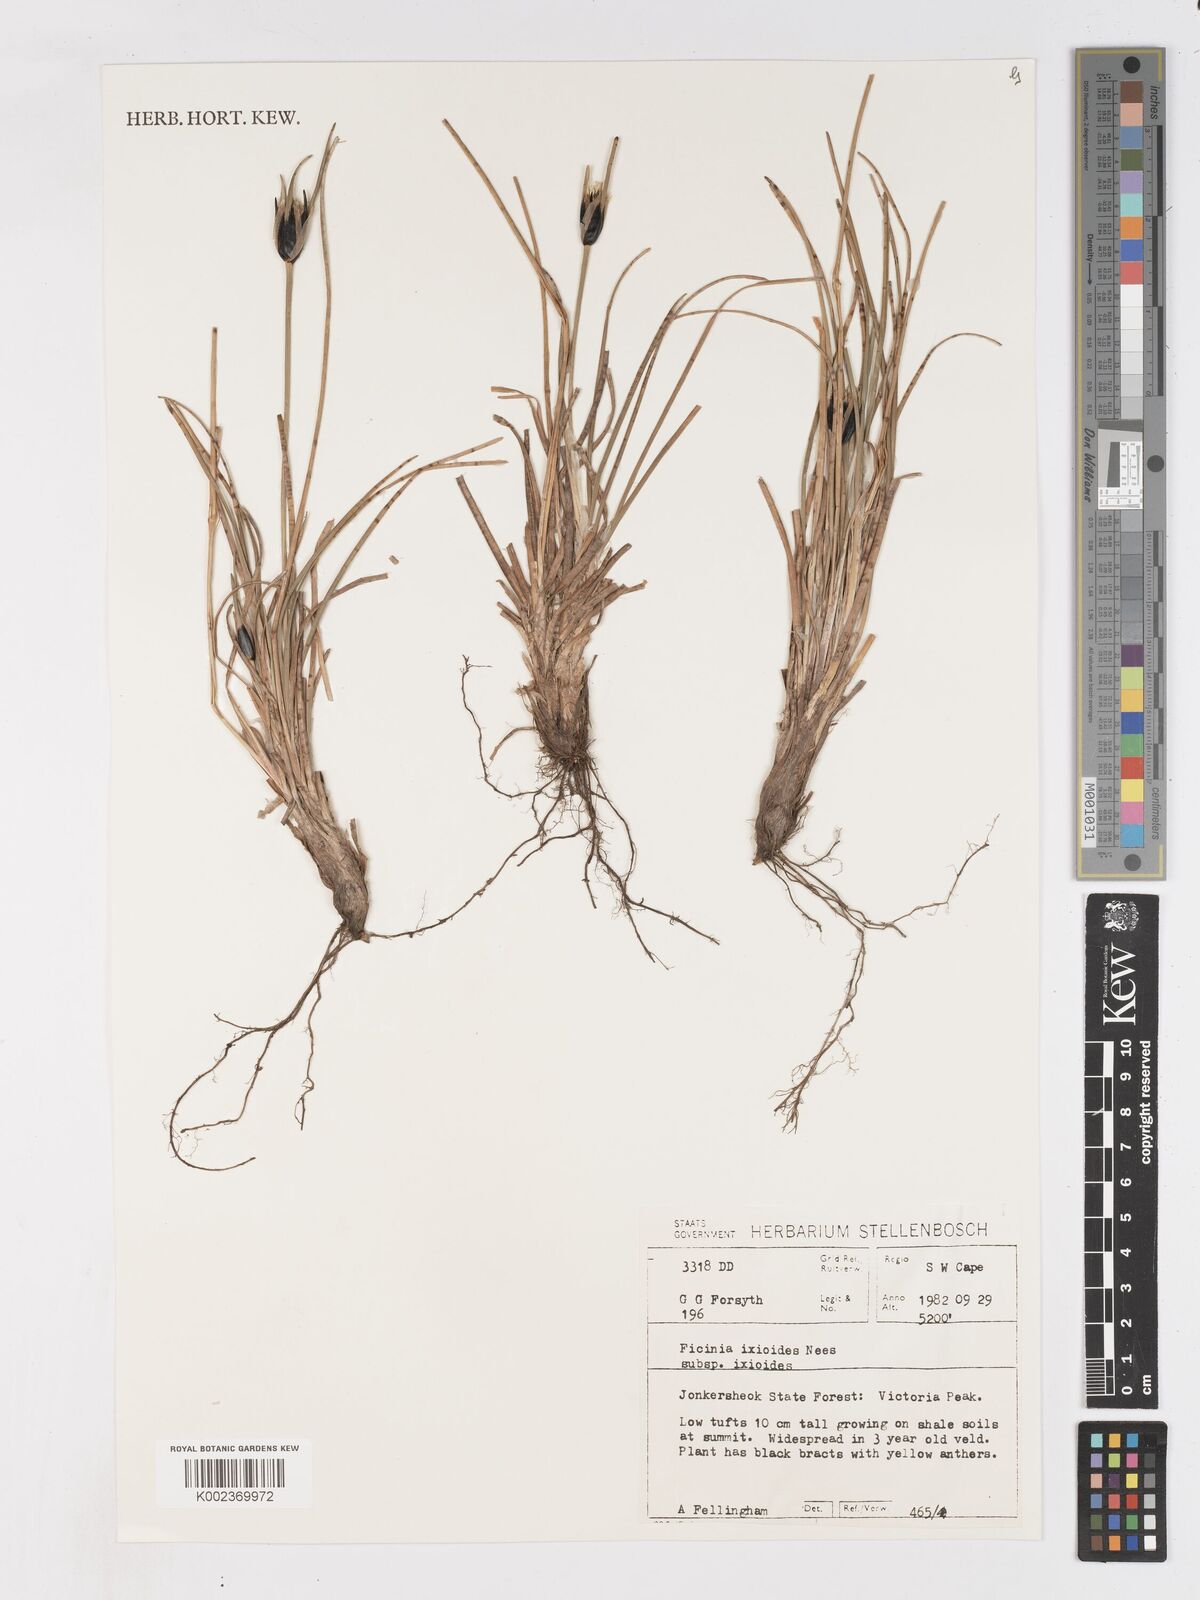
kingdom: Plantae
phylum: Tracheophyta
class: Liliopsida
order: Poales
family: Cyperaceae
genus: Ficinia
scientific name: Ficinia ixioides
